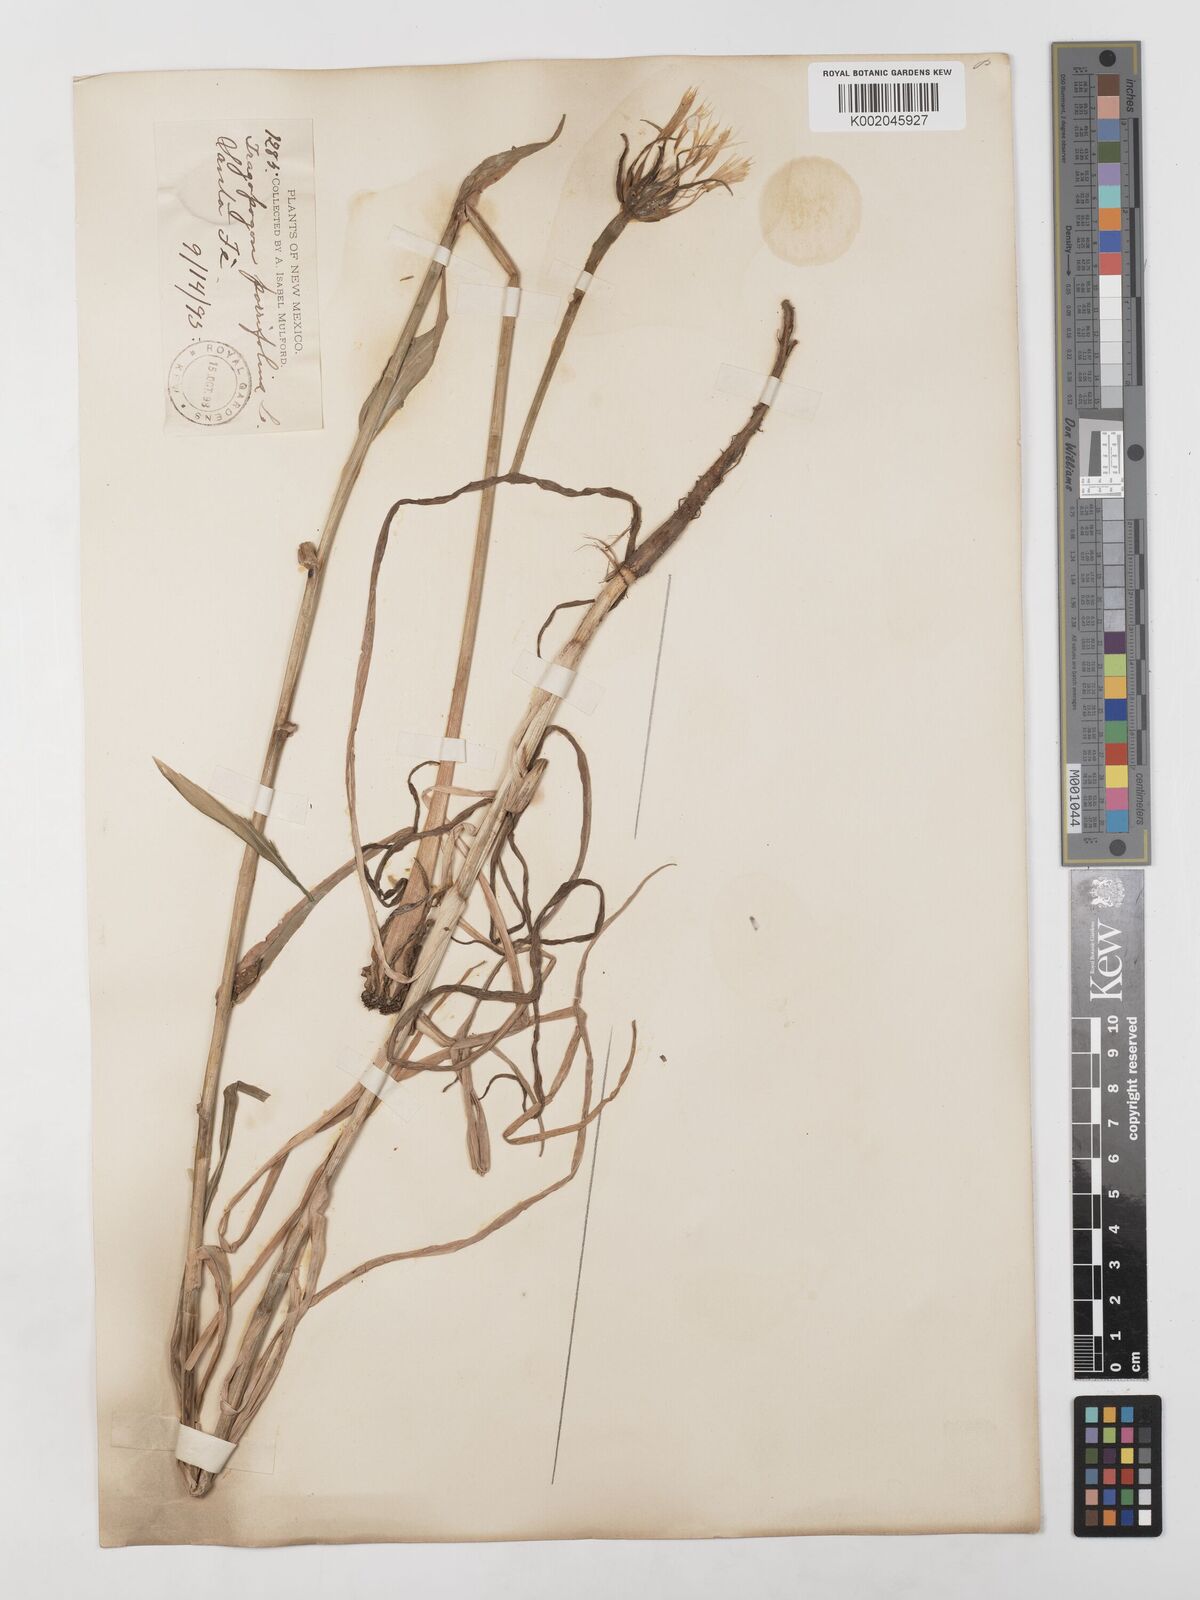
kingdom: Plantae
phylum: Tracheophyta
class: Magnoliopsida
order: Asterales
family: Asteraceae
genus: Tragopogon
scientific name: Tragopogon porrifolius
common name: Salsify
